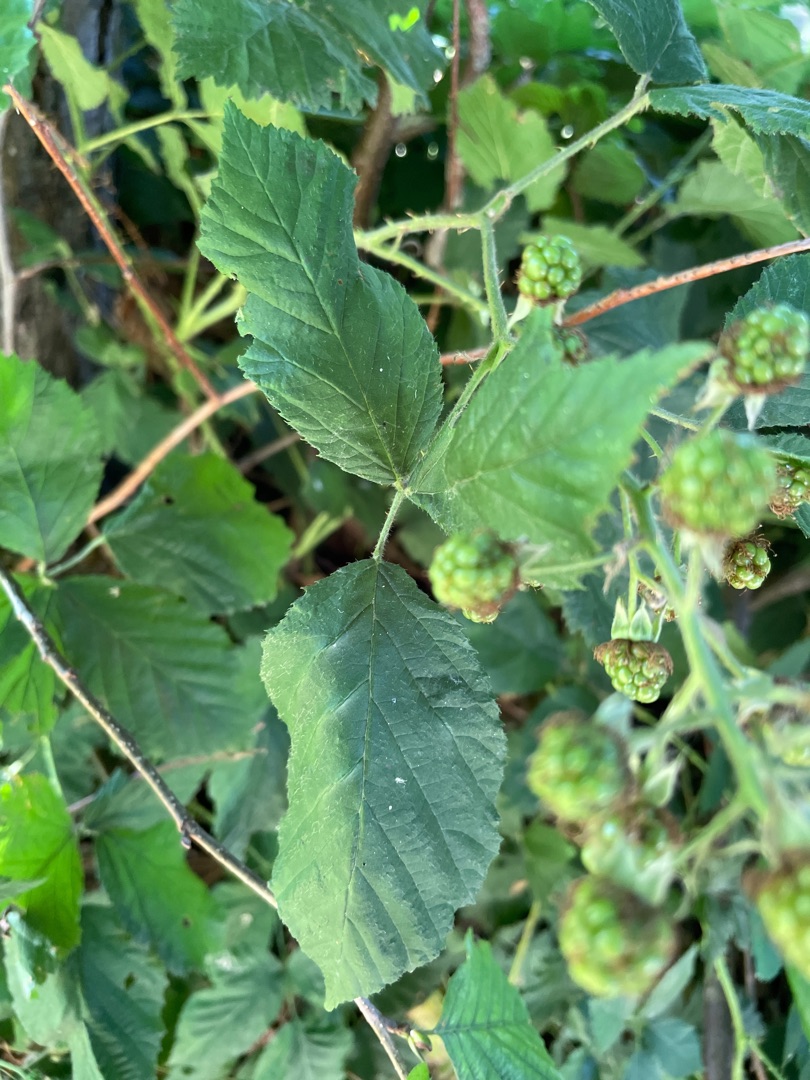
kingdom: Plantae
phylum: Tracheophyta
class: Magnoliopsida
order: Rosales
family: Rosaceae
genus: Rubus
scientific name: Rubus
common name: Klyngerslægten
